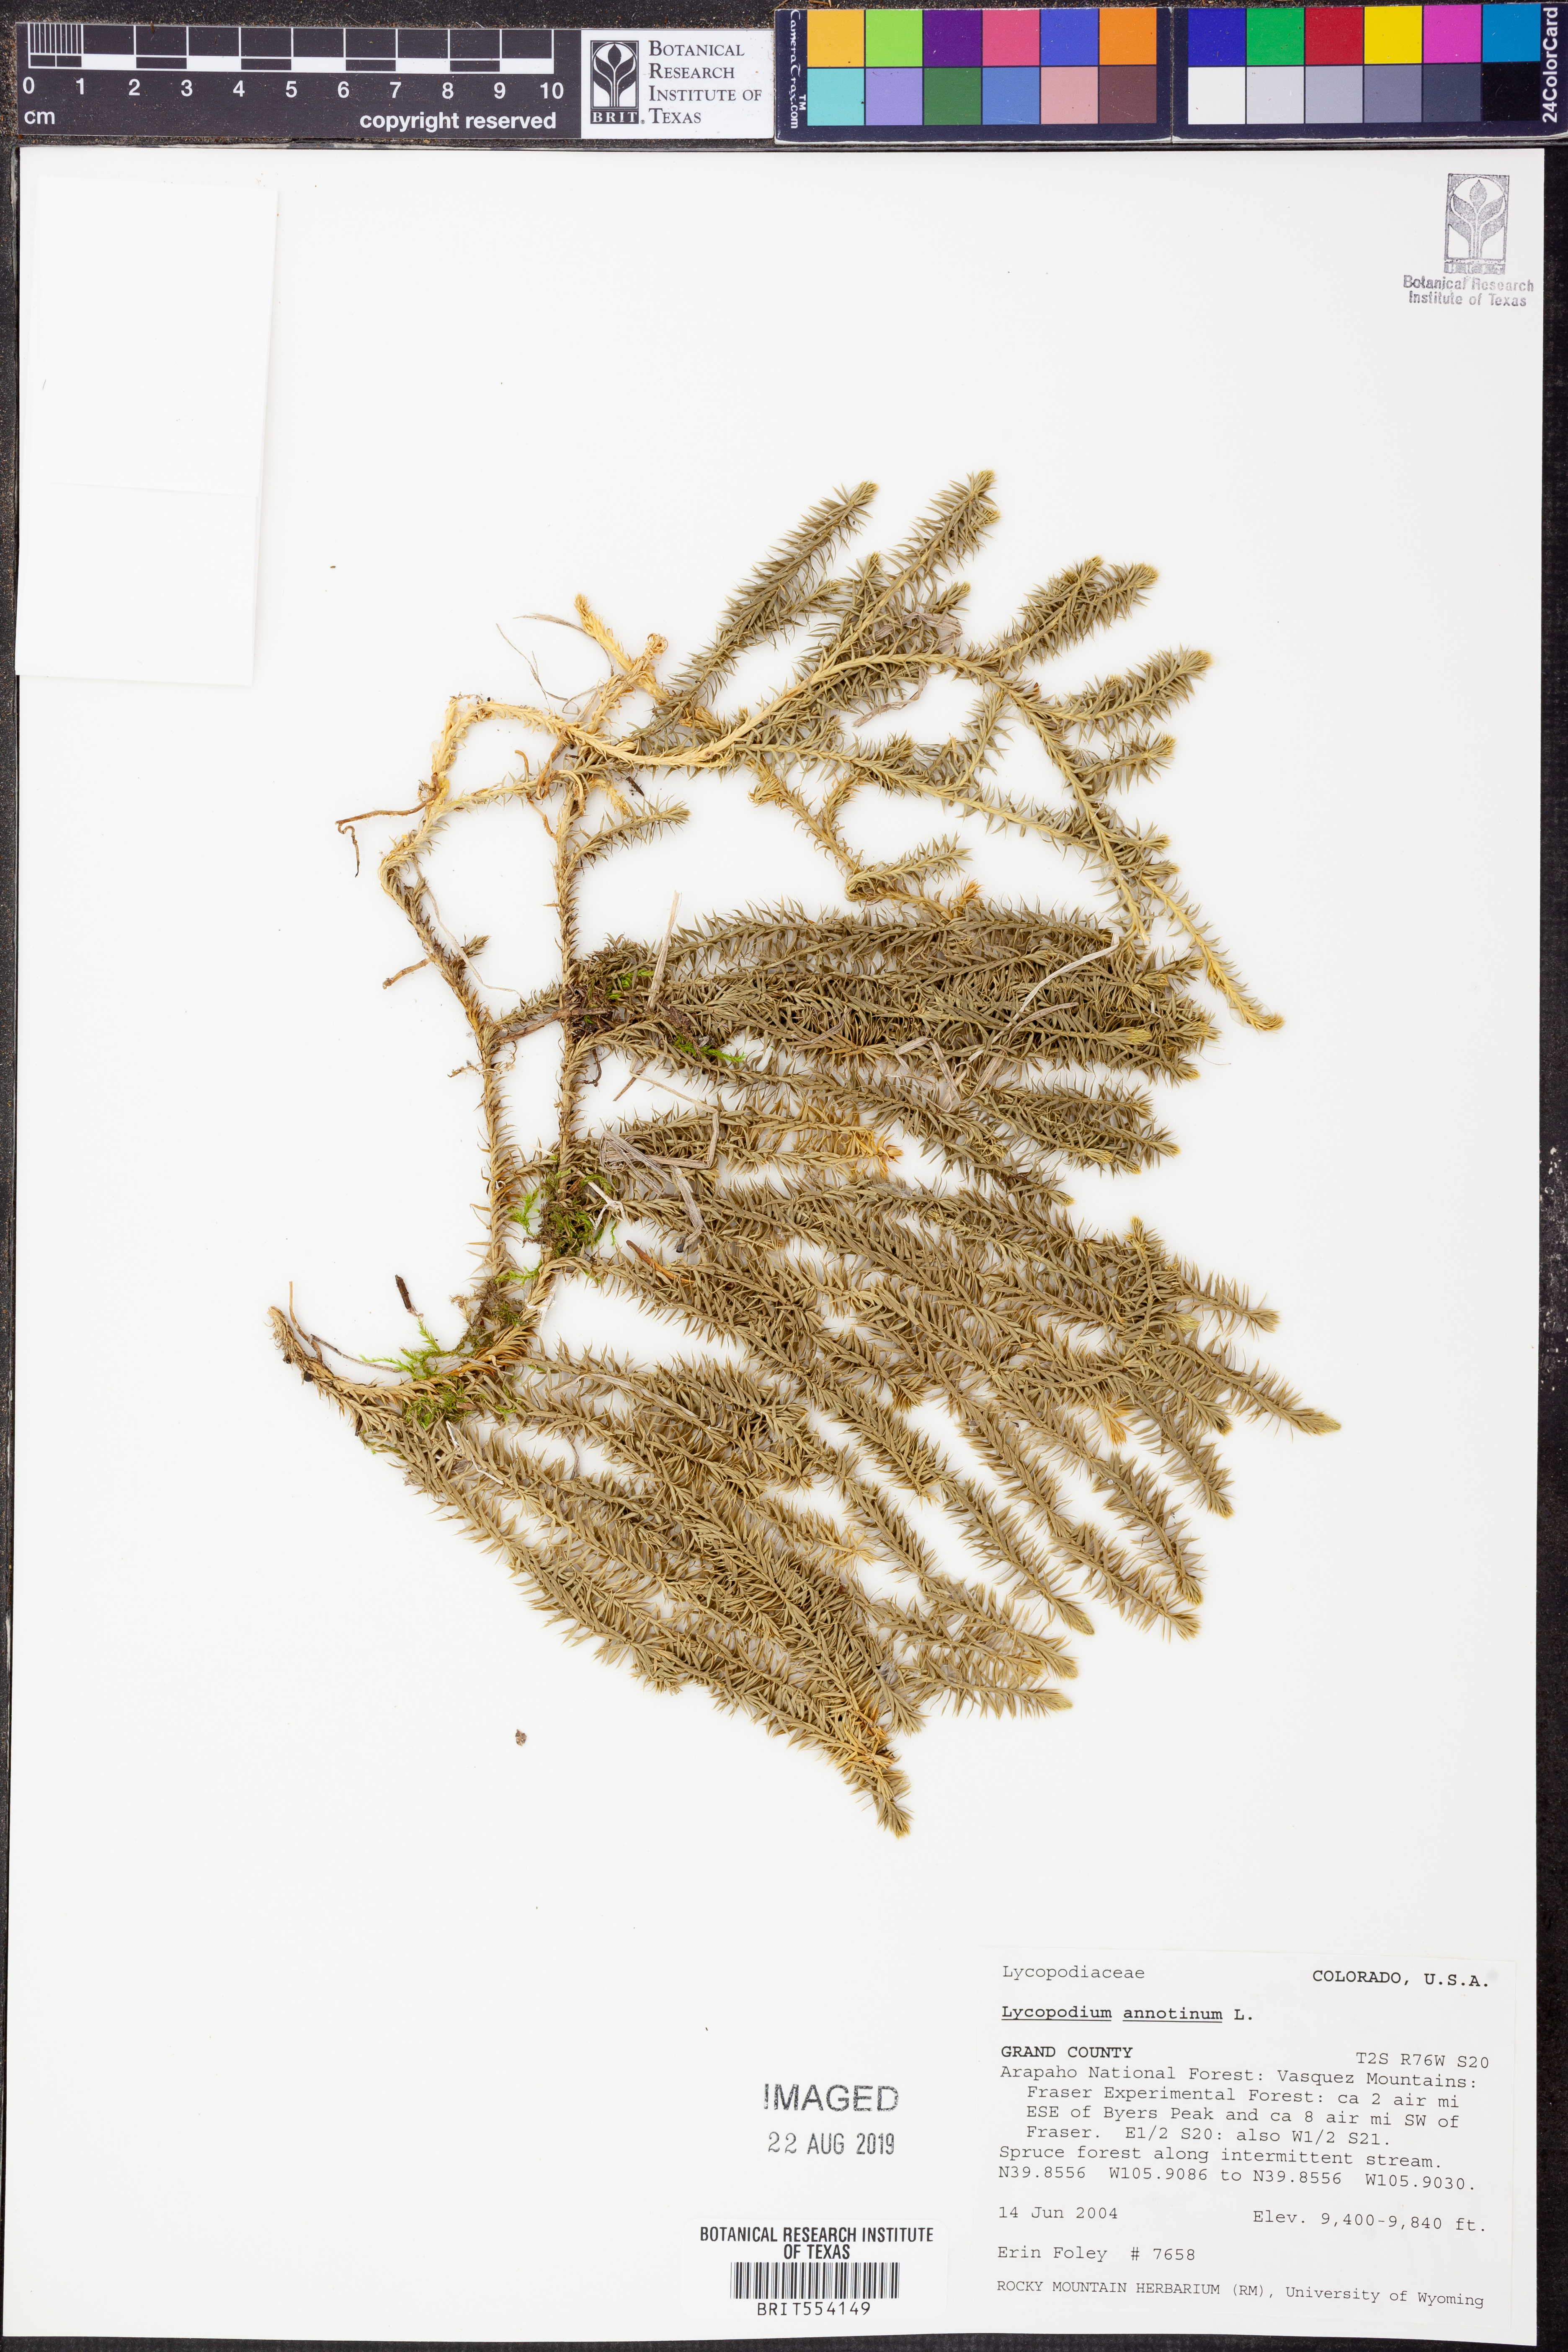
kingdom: Plantae
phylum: Tracheophyta
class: Lycopodiopsida
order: Lycopodiales
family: Lycopodiaceae
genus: Spinulum
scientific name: Spinulum annotinum
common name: Interrupted club-moss
